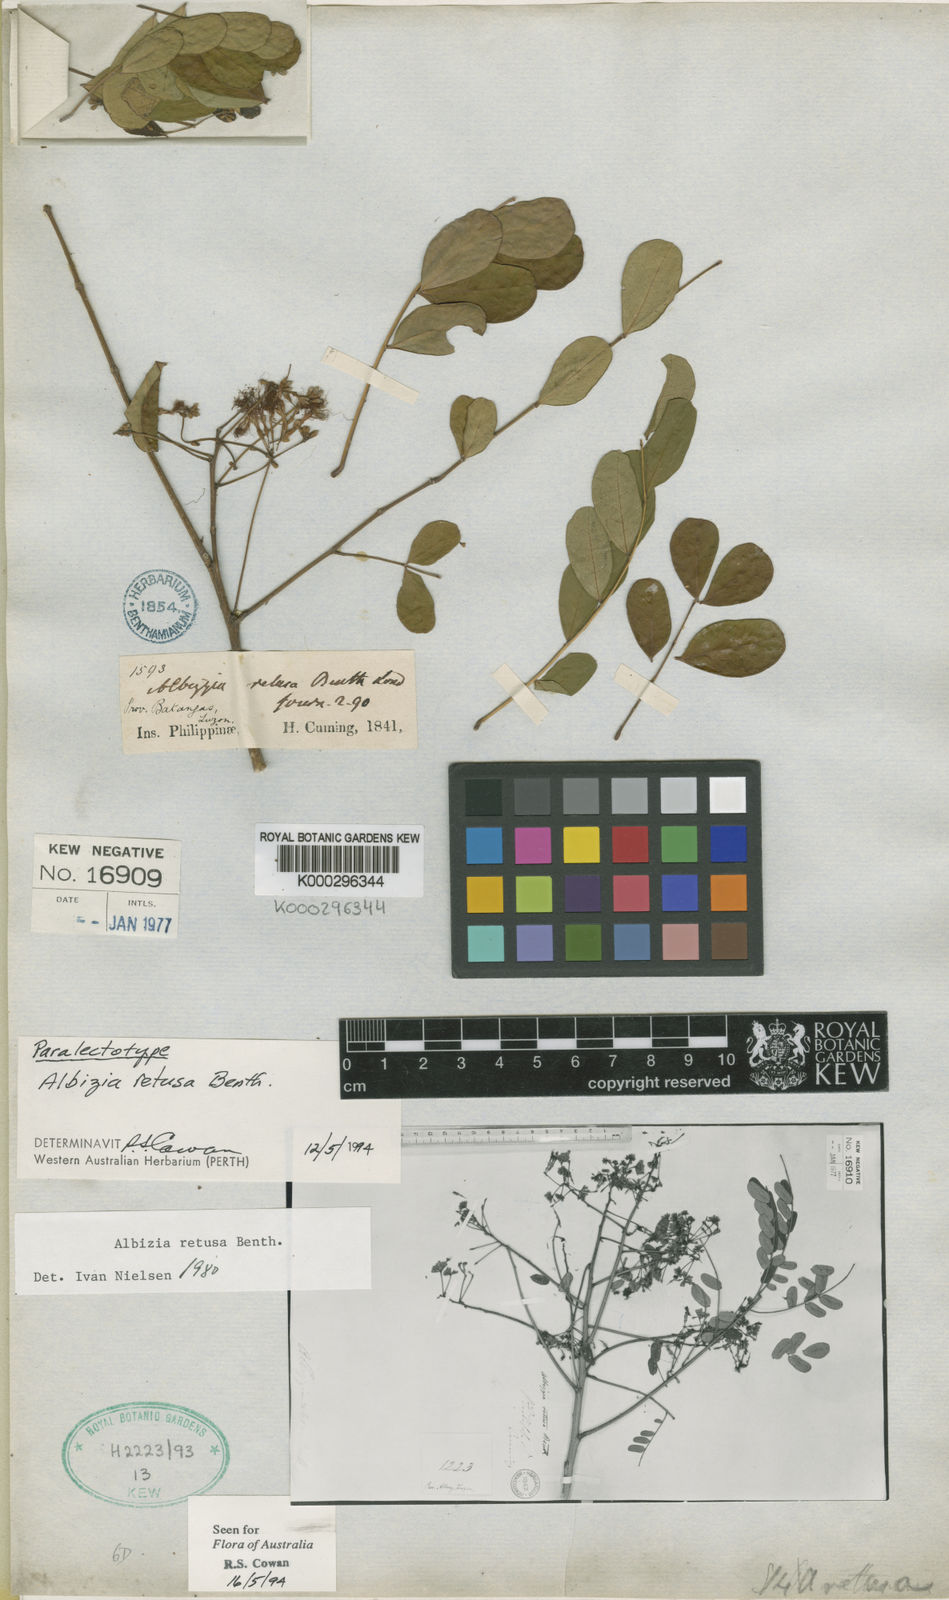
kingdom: Plantae
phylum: Tracheophyta
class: Magnoliopsida
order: Fabales
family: Fabaceae
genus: Albizia
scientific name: Albizia retusa
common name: Sea albizia
